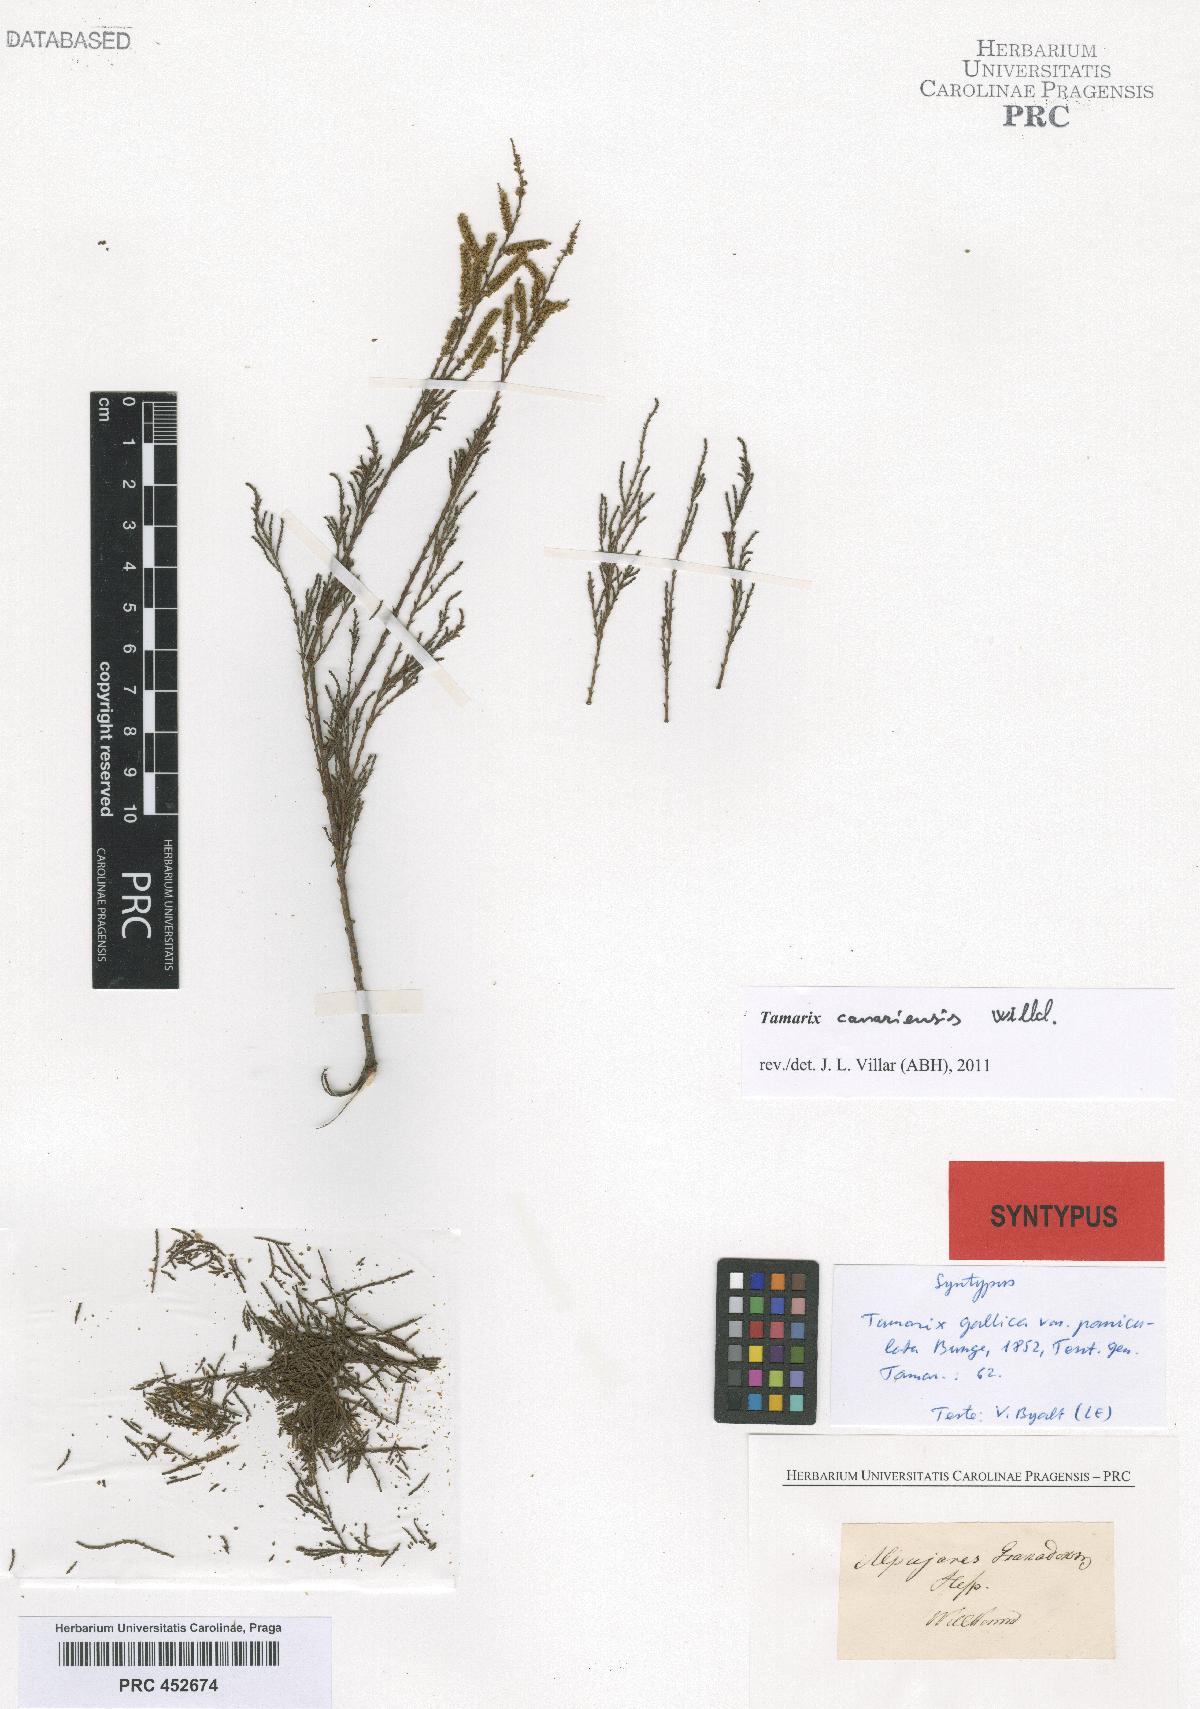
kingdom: Plantae
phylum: Tracheophyta
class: Magnoliopsida
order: Caryophyllales
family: Tamaricaceae
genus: Tamarix
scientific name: Tamarix gallica
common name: Tamarisk
